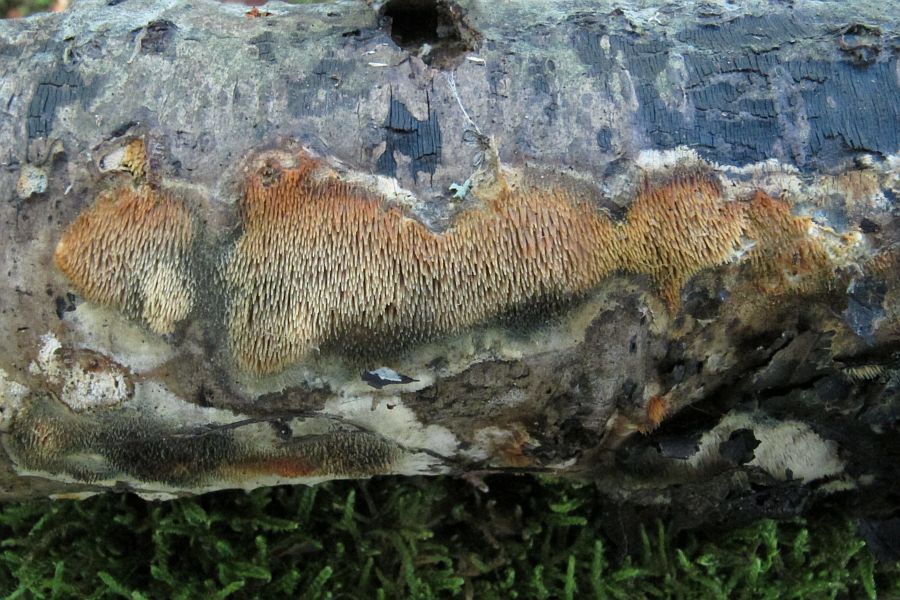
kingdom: Fungi
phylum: Basidiomycota
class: Agaricomycetes
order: Polyporales
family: Meruliaceae
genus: Mycoaciella
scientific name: Mycoaciella bispora
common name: stalaktit-vokspig
